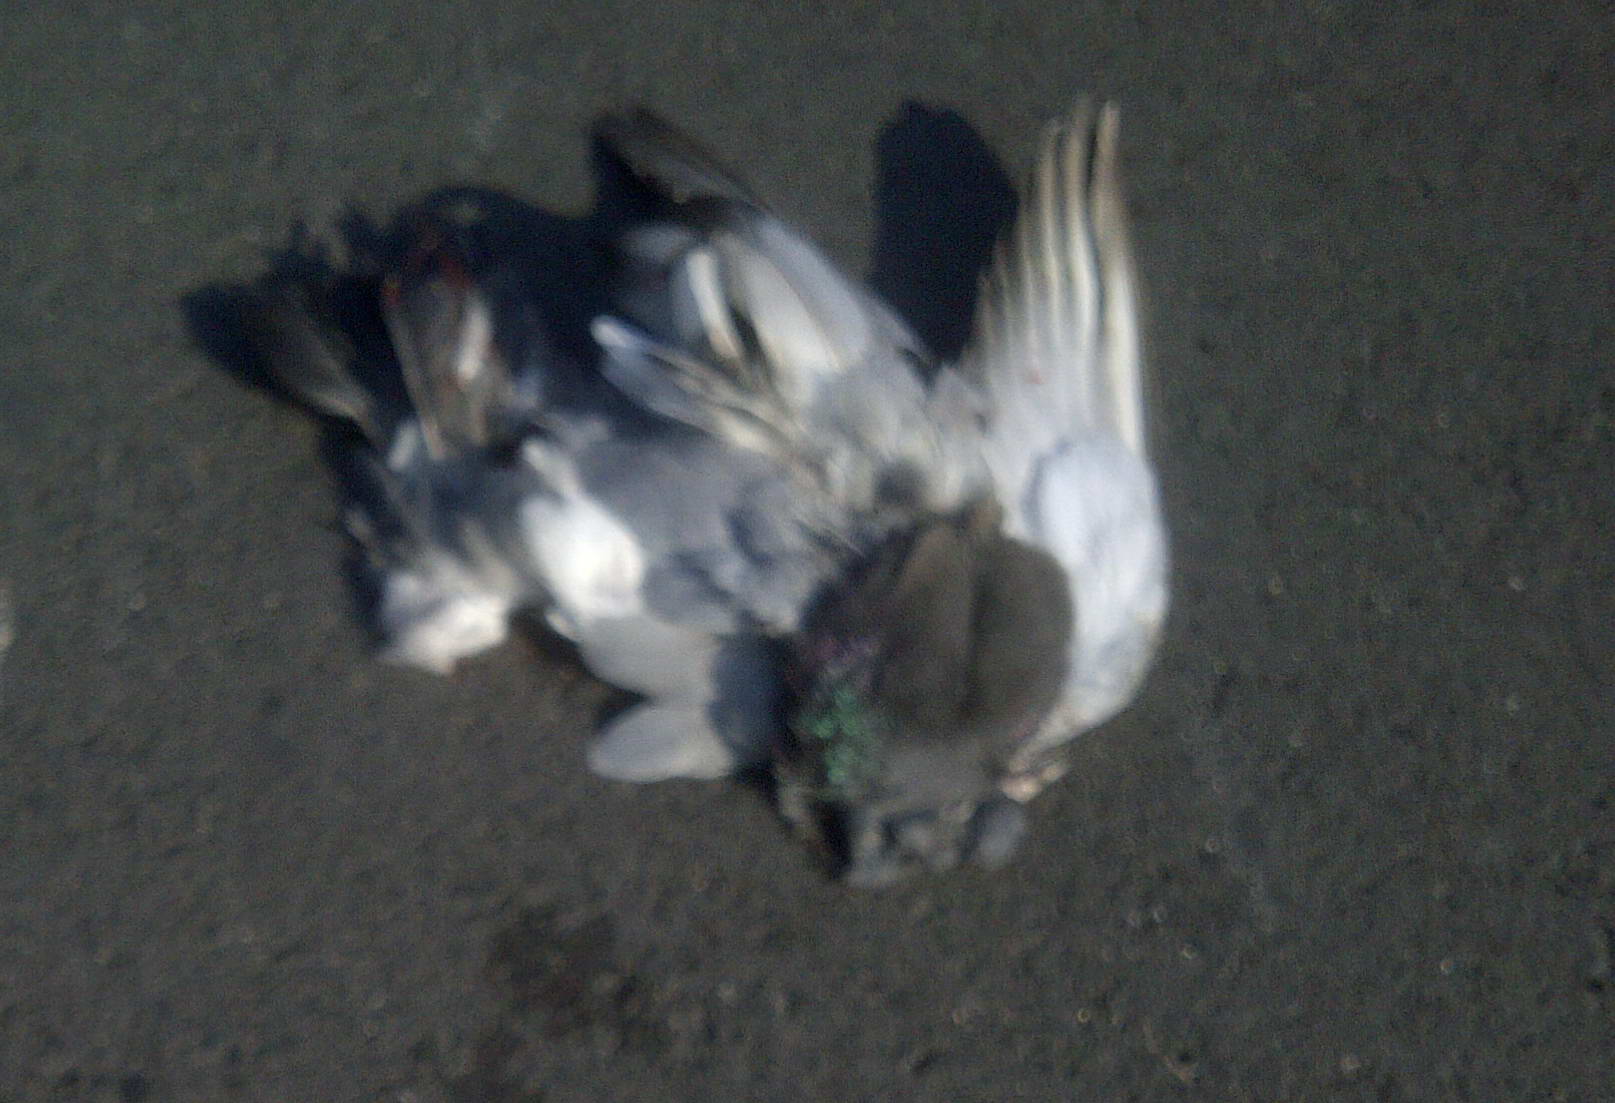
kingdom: Animalia
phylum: Chordata
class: Aves
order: Columbiformes
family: Columbidae
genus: Columba
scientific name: Columba livia
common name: Rock pigeon
